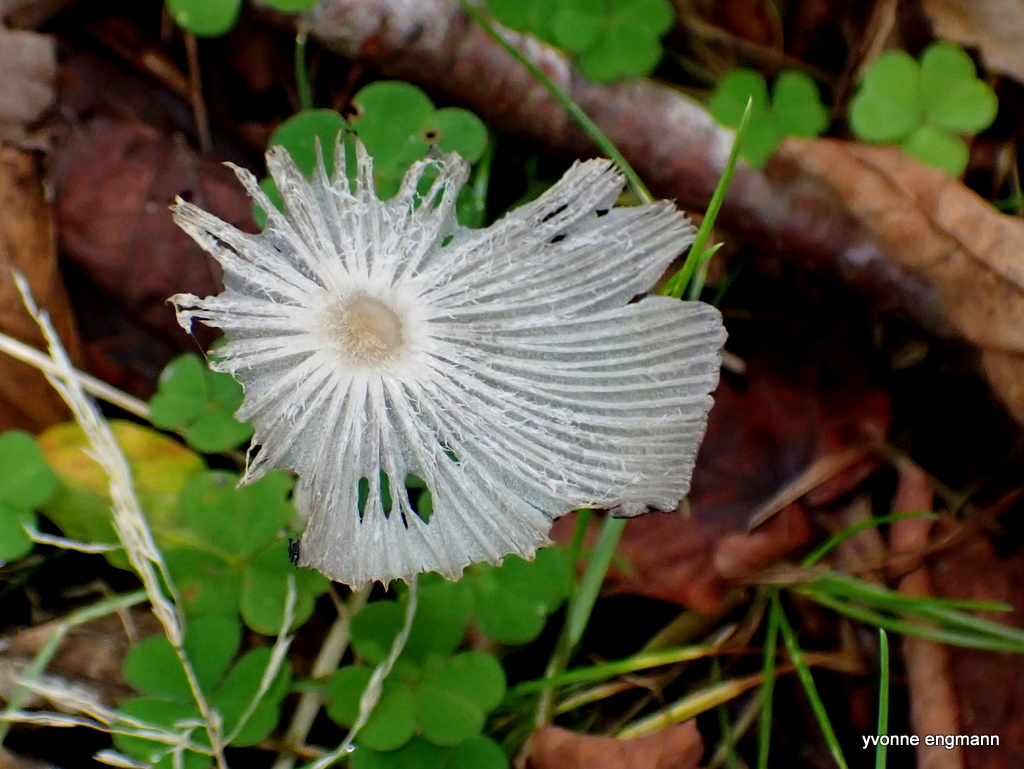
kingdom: Fungi
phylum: Basidiomycota
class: Agaricomycetes
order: Agaricales
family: Psathyrellaceae
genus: Coprinopsis
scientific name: Coprinopsis lagopus
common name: dunstokket blækhat
